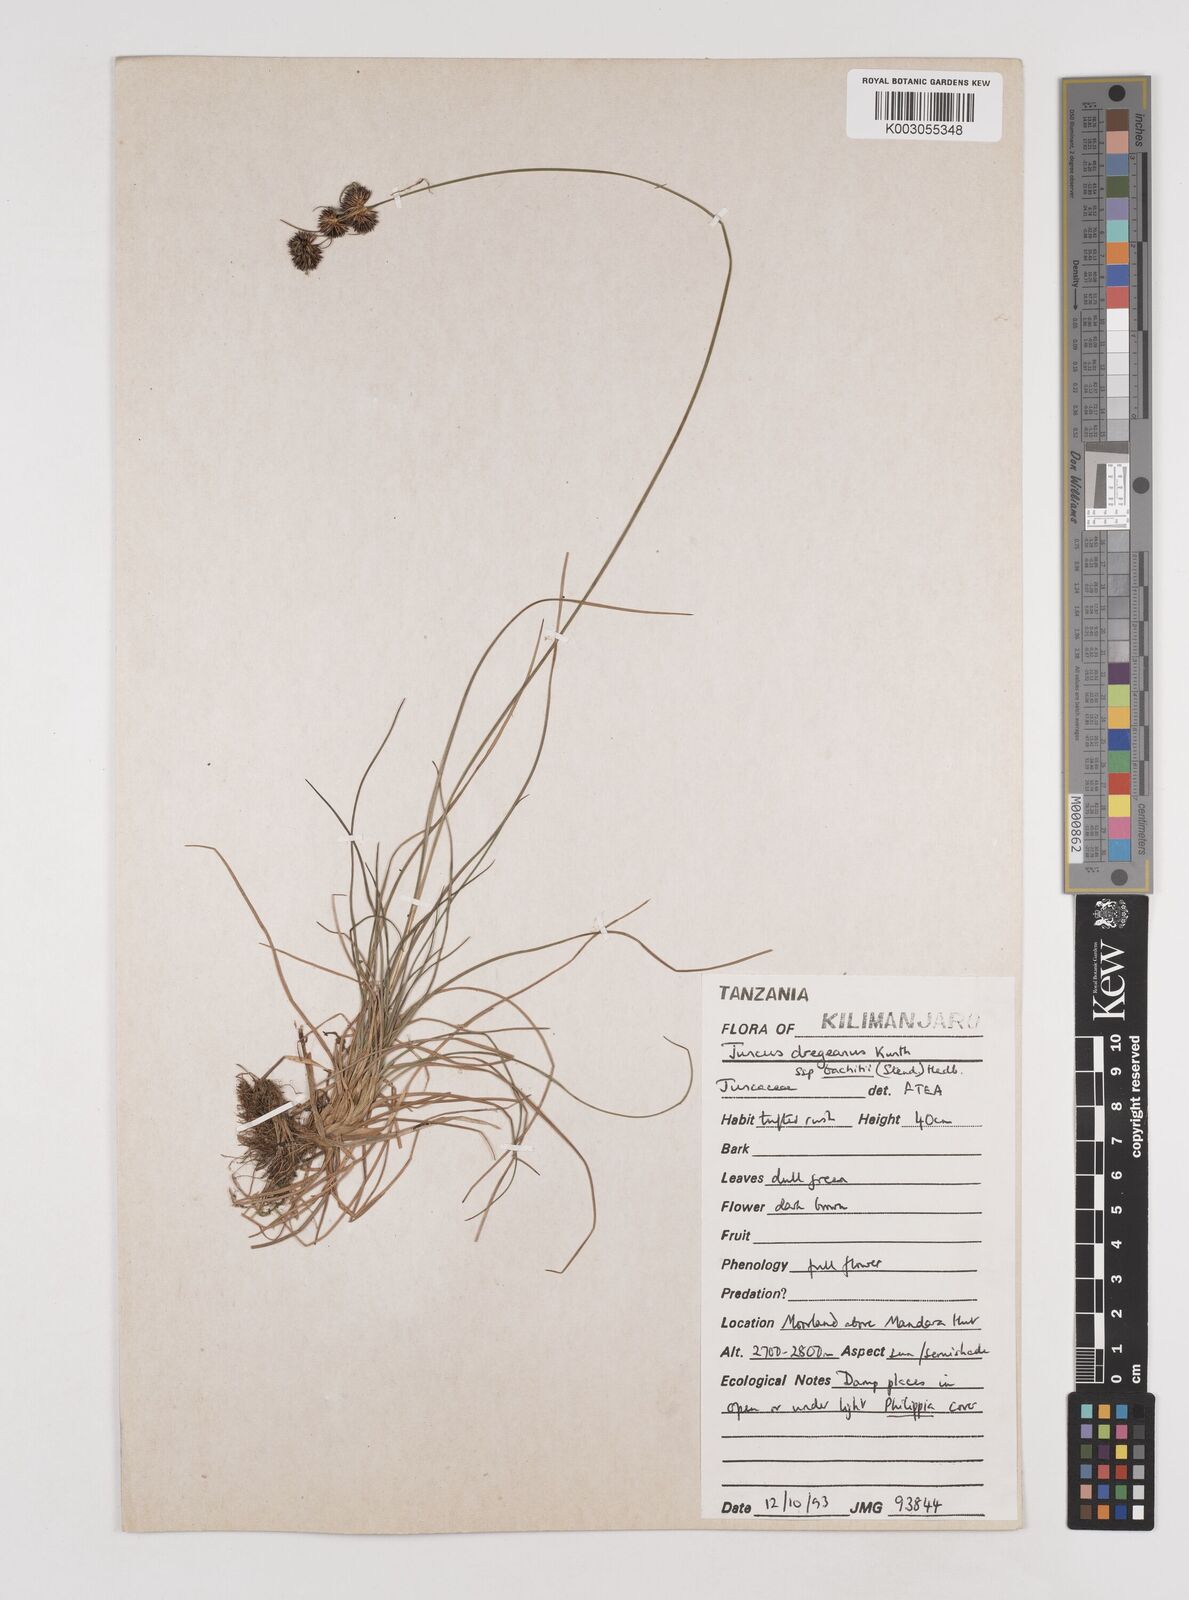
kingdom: Plantae
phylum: Tracheophyta
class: Liliopsida
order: Poales
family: Juncaceae
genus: Juncus
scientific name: Juncus dregeanus
